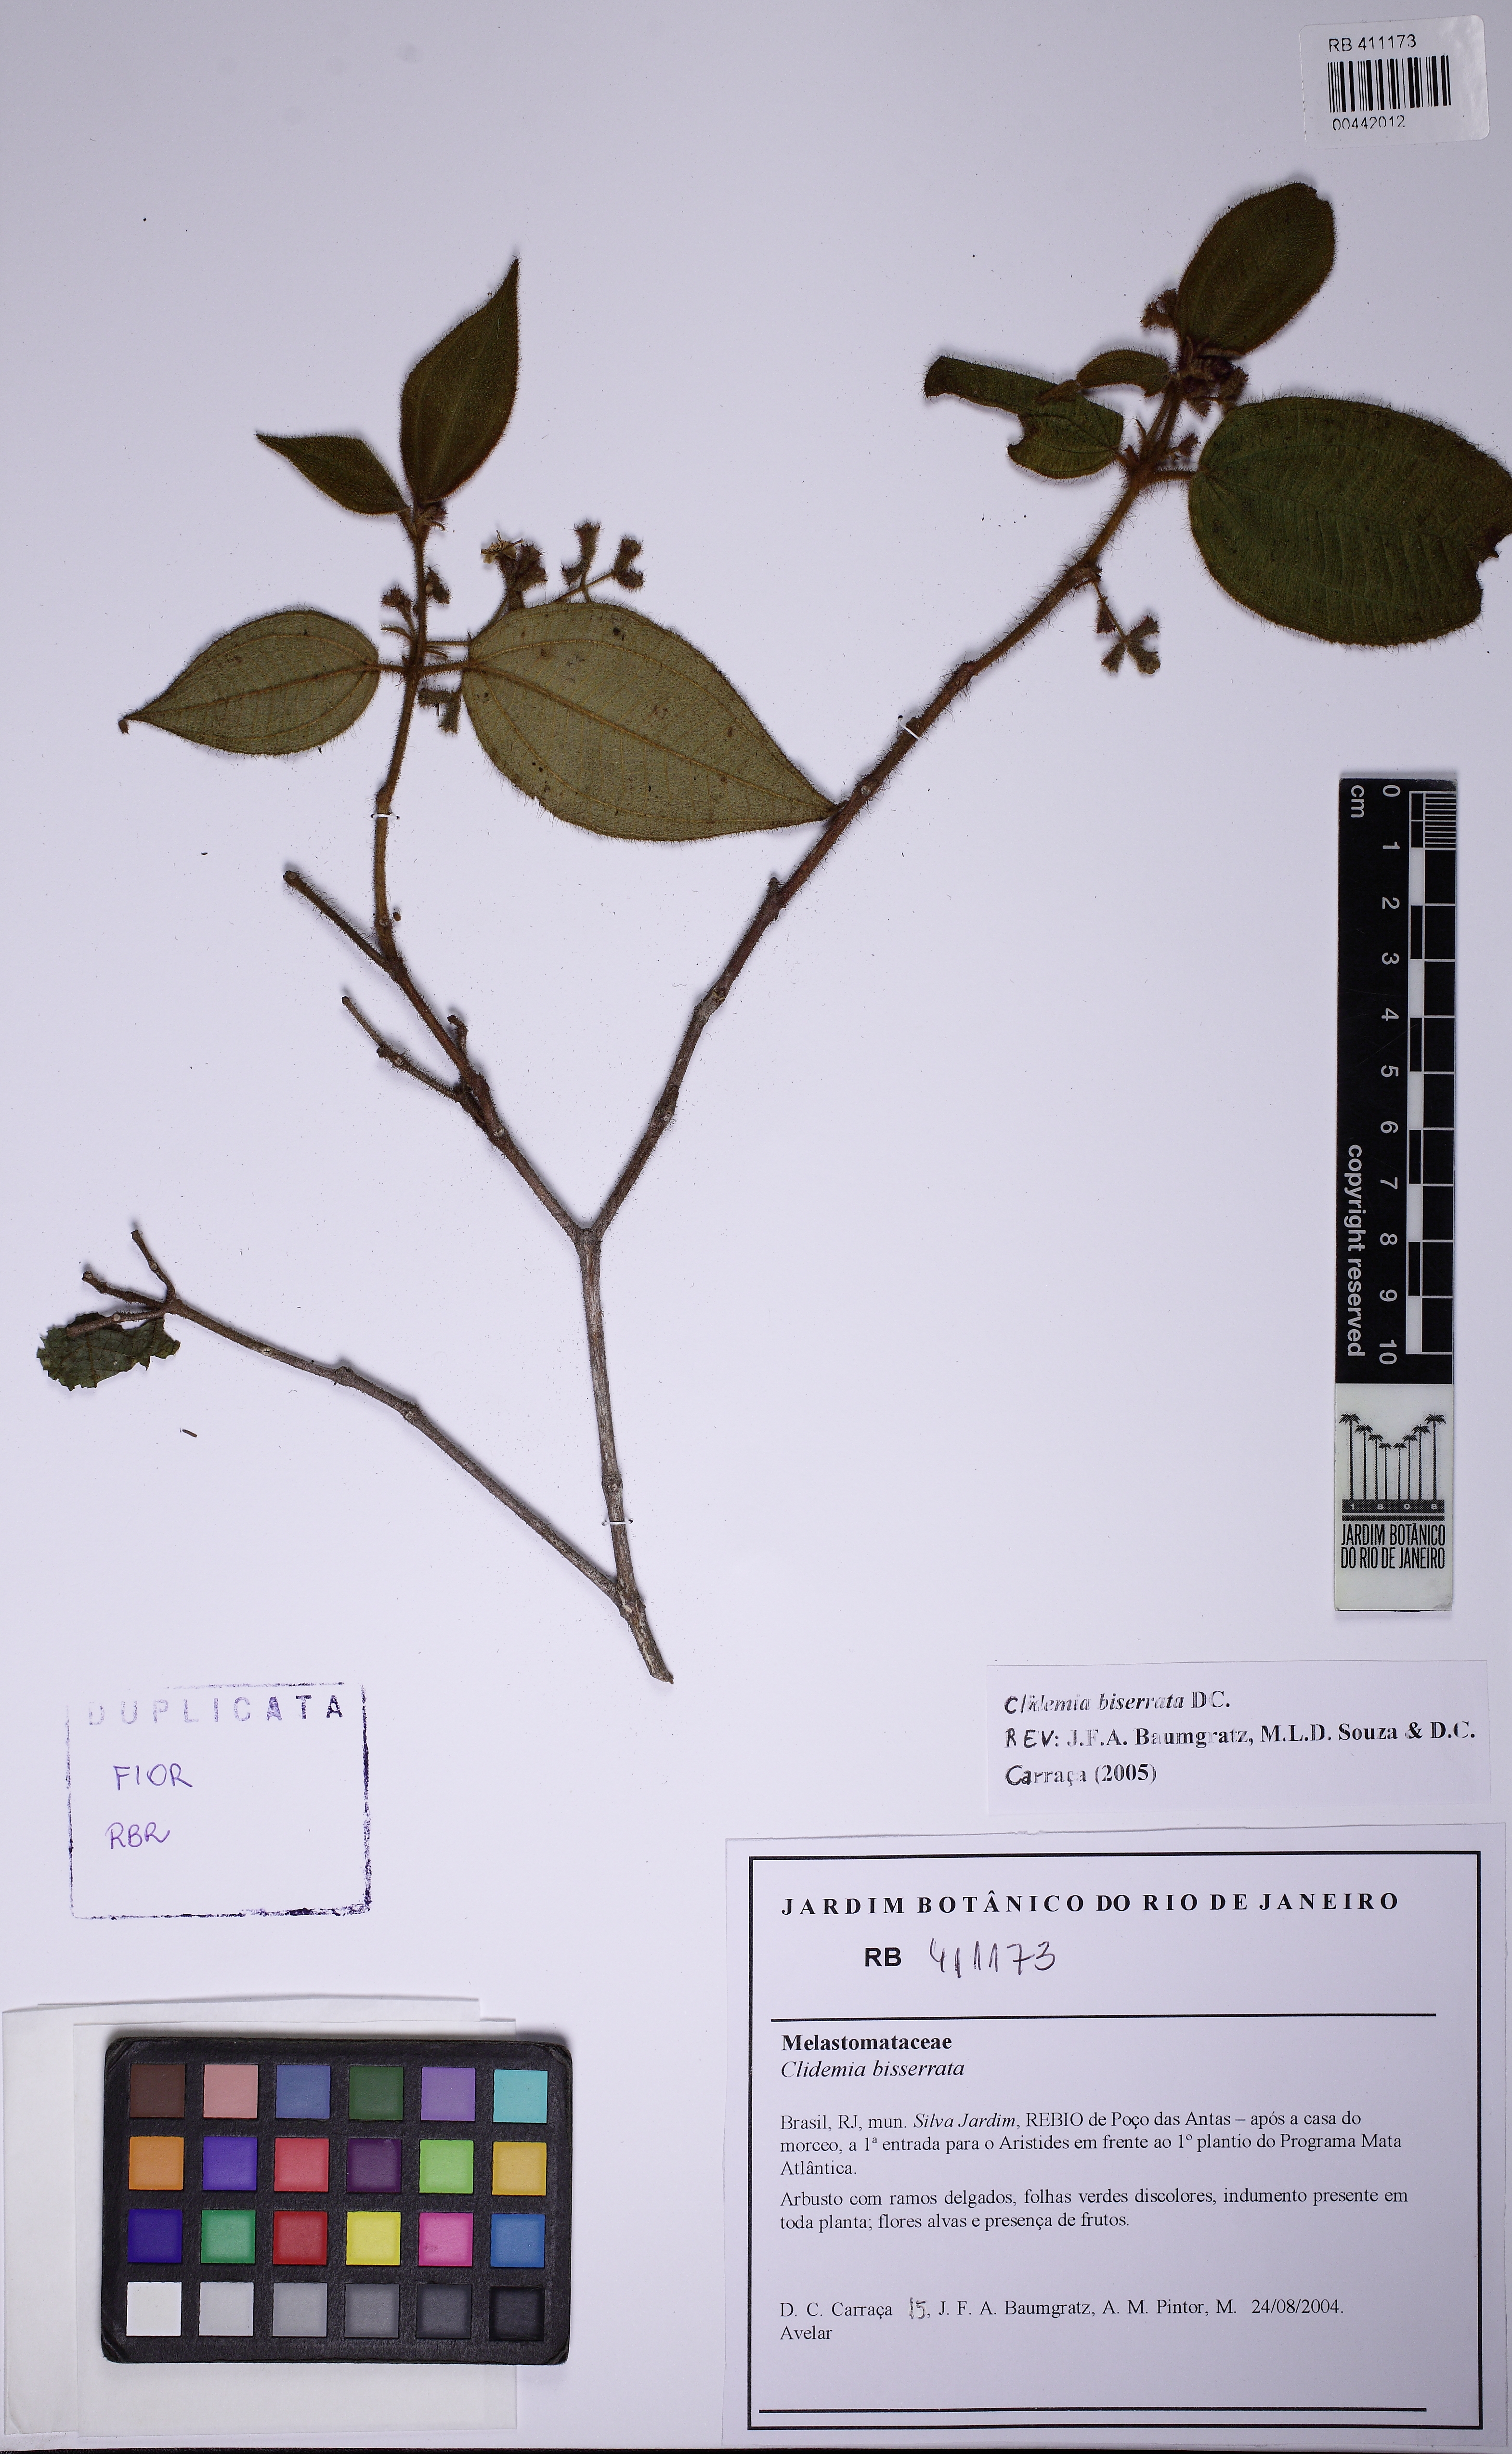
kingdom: Plantae
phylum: Tracheophyta
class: Magnoliopsida
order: Myrtales
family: Melastomataceae
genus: Miconia
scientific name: Miconia biserrata
